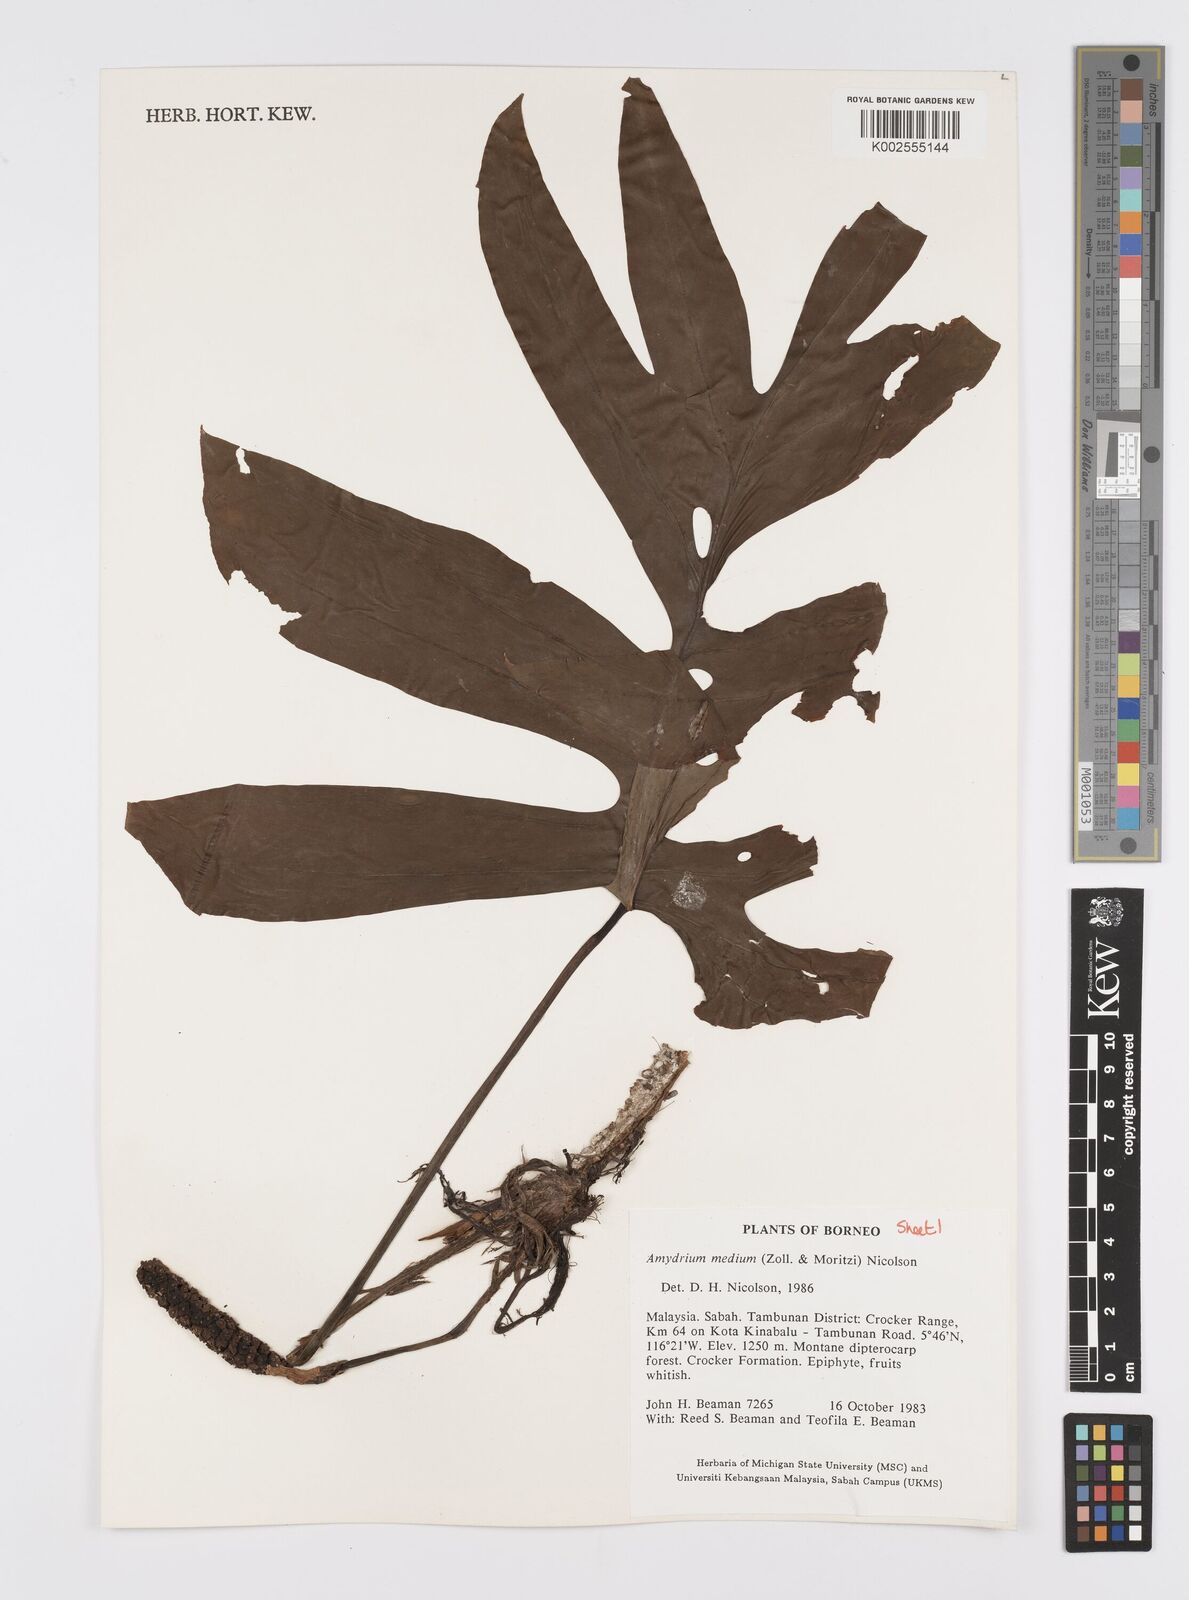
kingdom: Plantae
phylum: Tracheophyta
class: Liliopsida
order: Alismatales
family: Araceae
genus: Amydrium
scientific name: Amydrium medium
